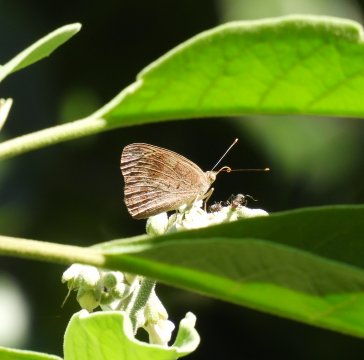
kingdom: Animalia
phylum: Arthropoda
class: Insecta
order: Lepidoptera
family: Nymphalidae
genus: Eunica
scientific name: Eunica monima
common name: Dingy Purplewing
